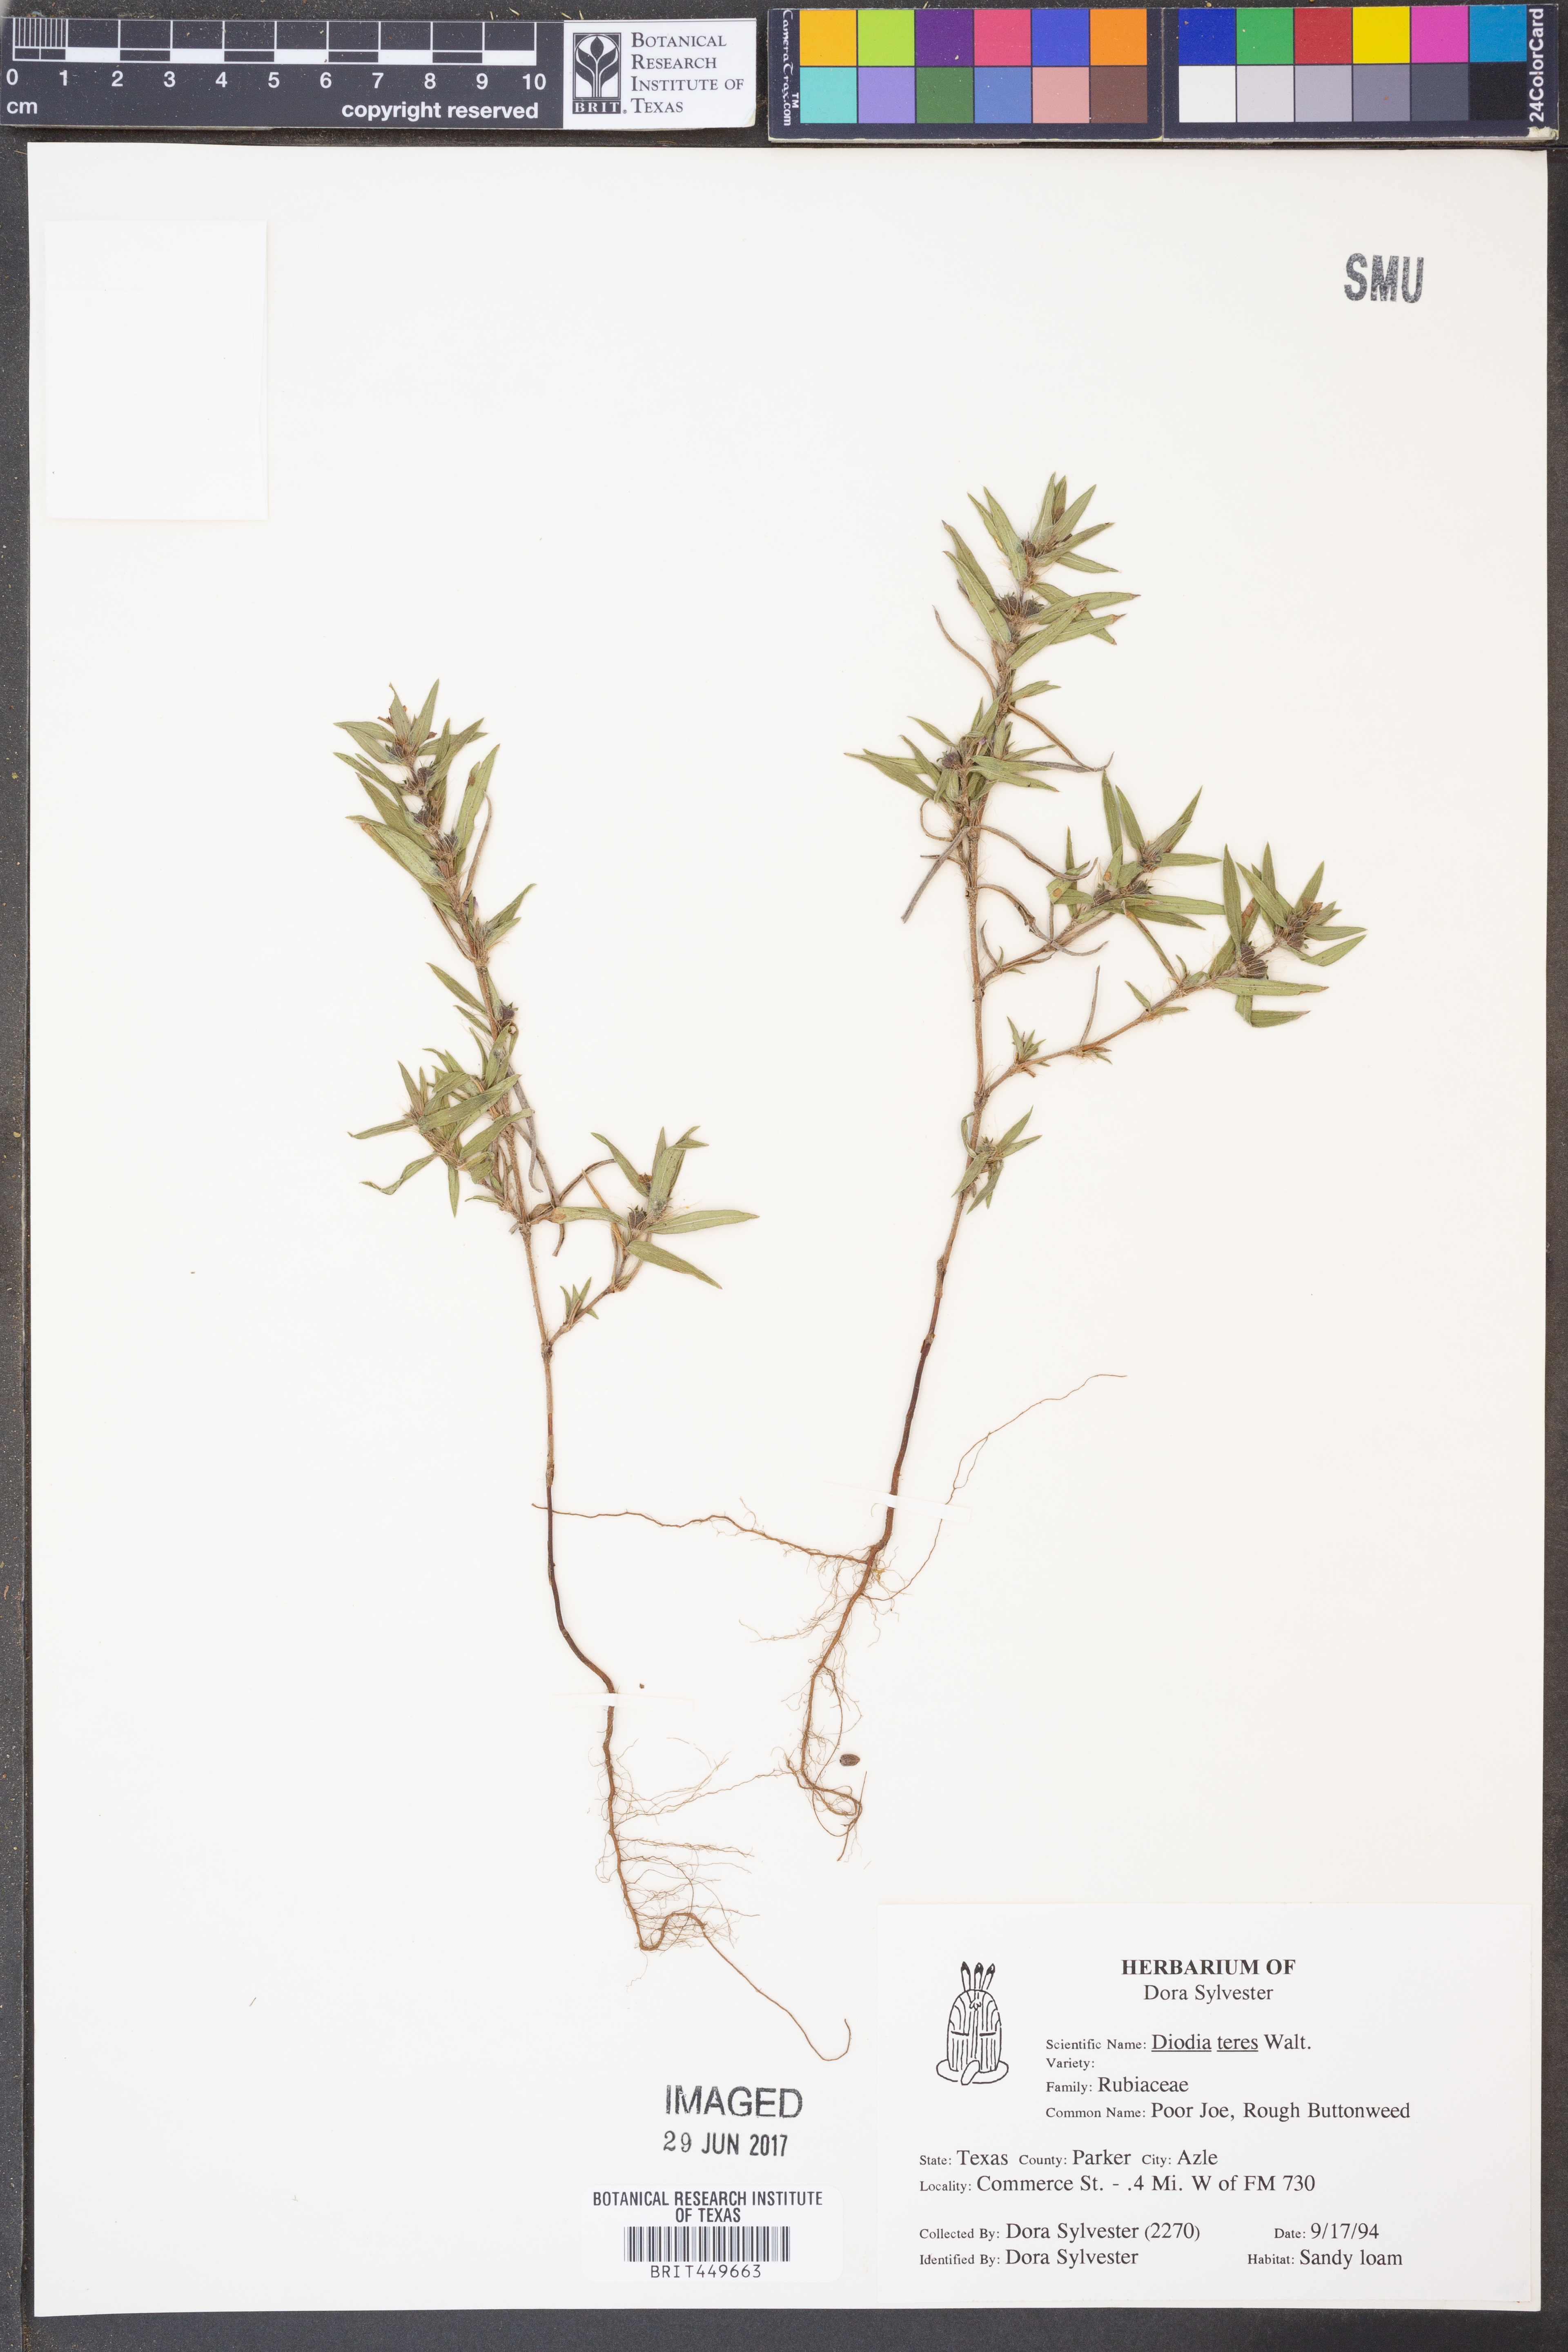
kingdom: Plantae
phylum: Tracheophyta
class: Magnoliopsida
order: Gentianales
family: Rubiaceae
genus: Hexasepalum
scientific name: Hexasepalum teres
